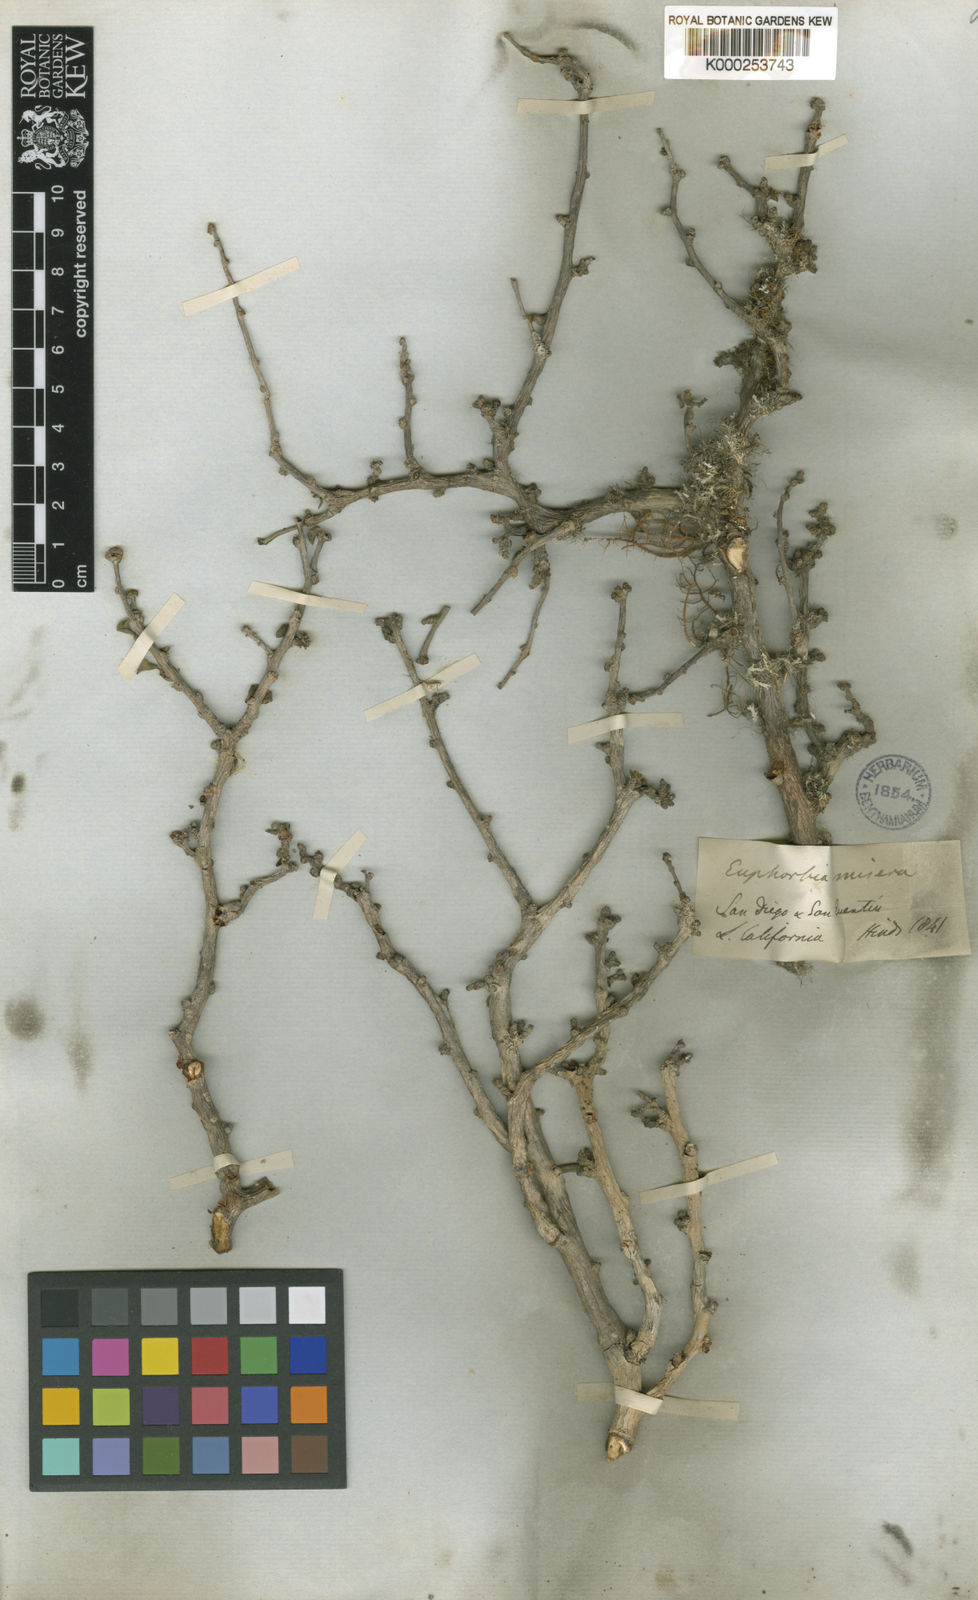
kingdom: Plantae
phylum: Tracheophyta
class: Magnoliopsida
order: Malpighiales
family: Euphorbiaceae
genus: Euphorbia
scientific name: Euphorbia misera
